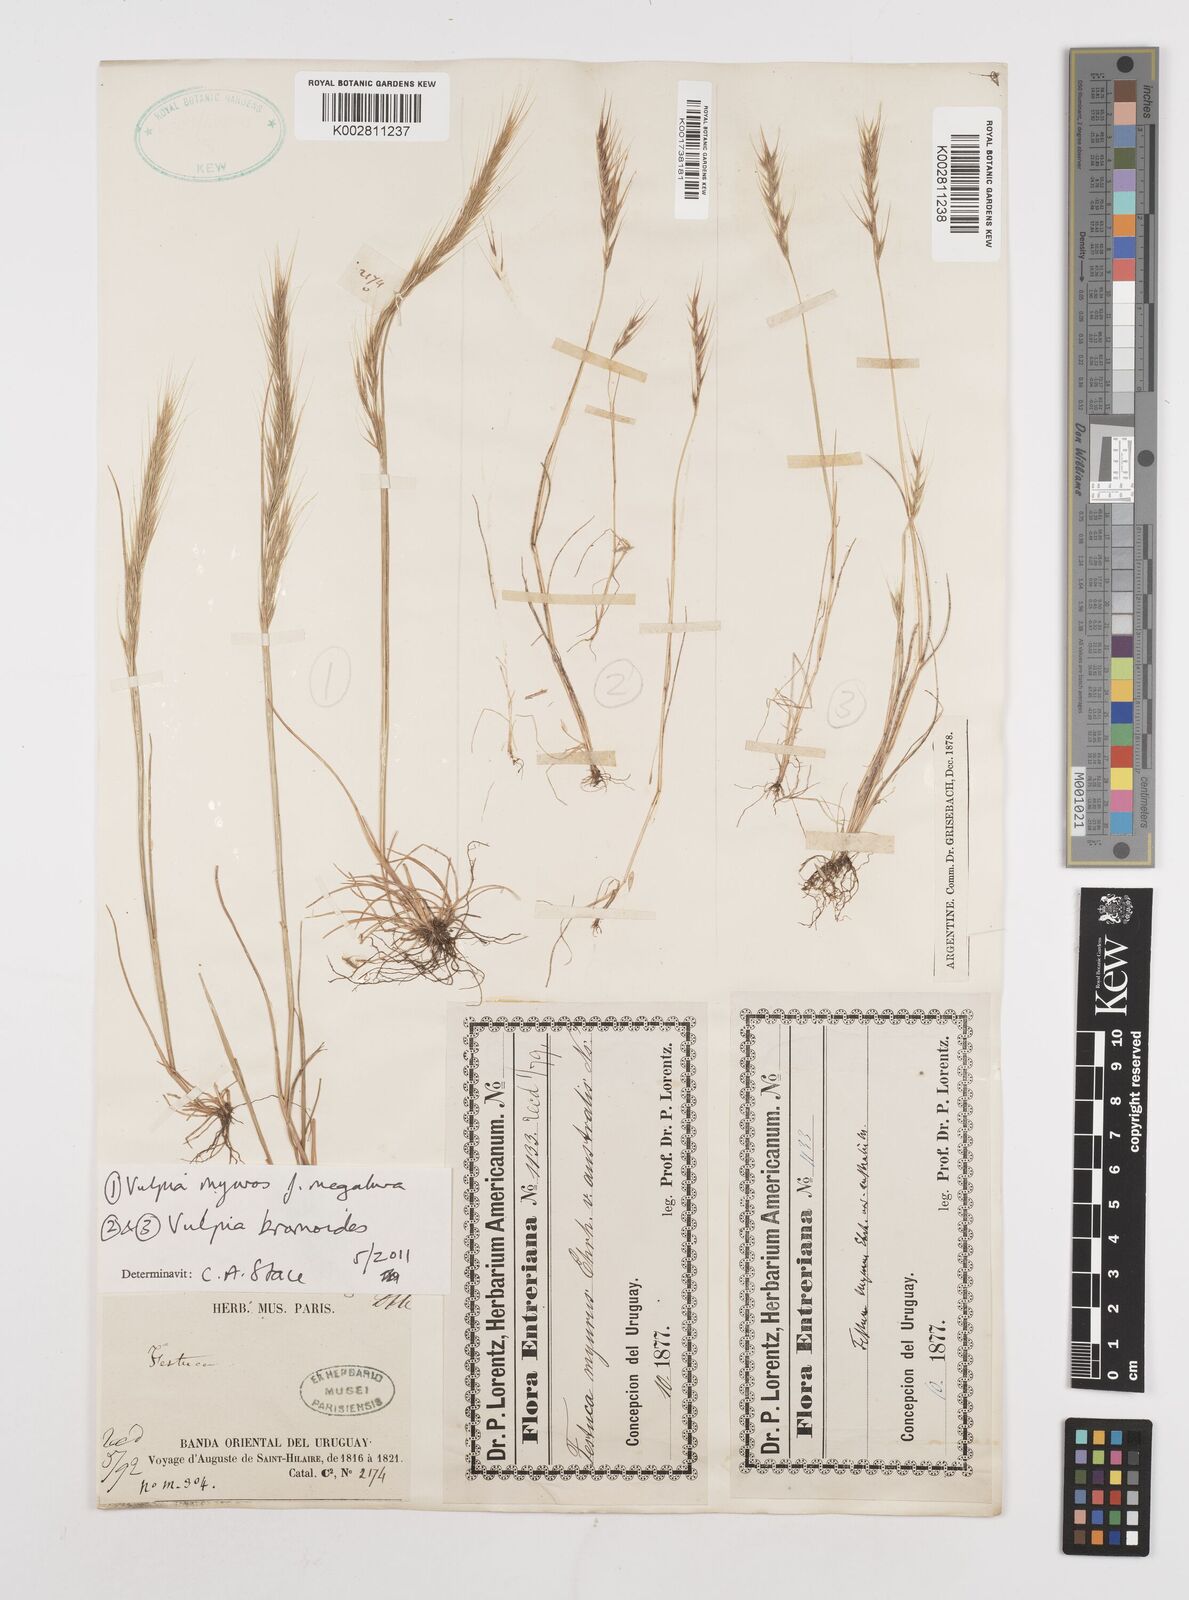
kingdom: Plantae
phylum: Tracheophyta
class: Liliopsida
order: Poales
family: Poaceae
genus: Festuca
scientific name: Festuca
